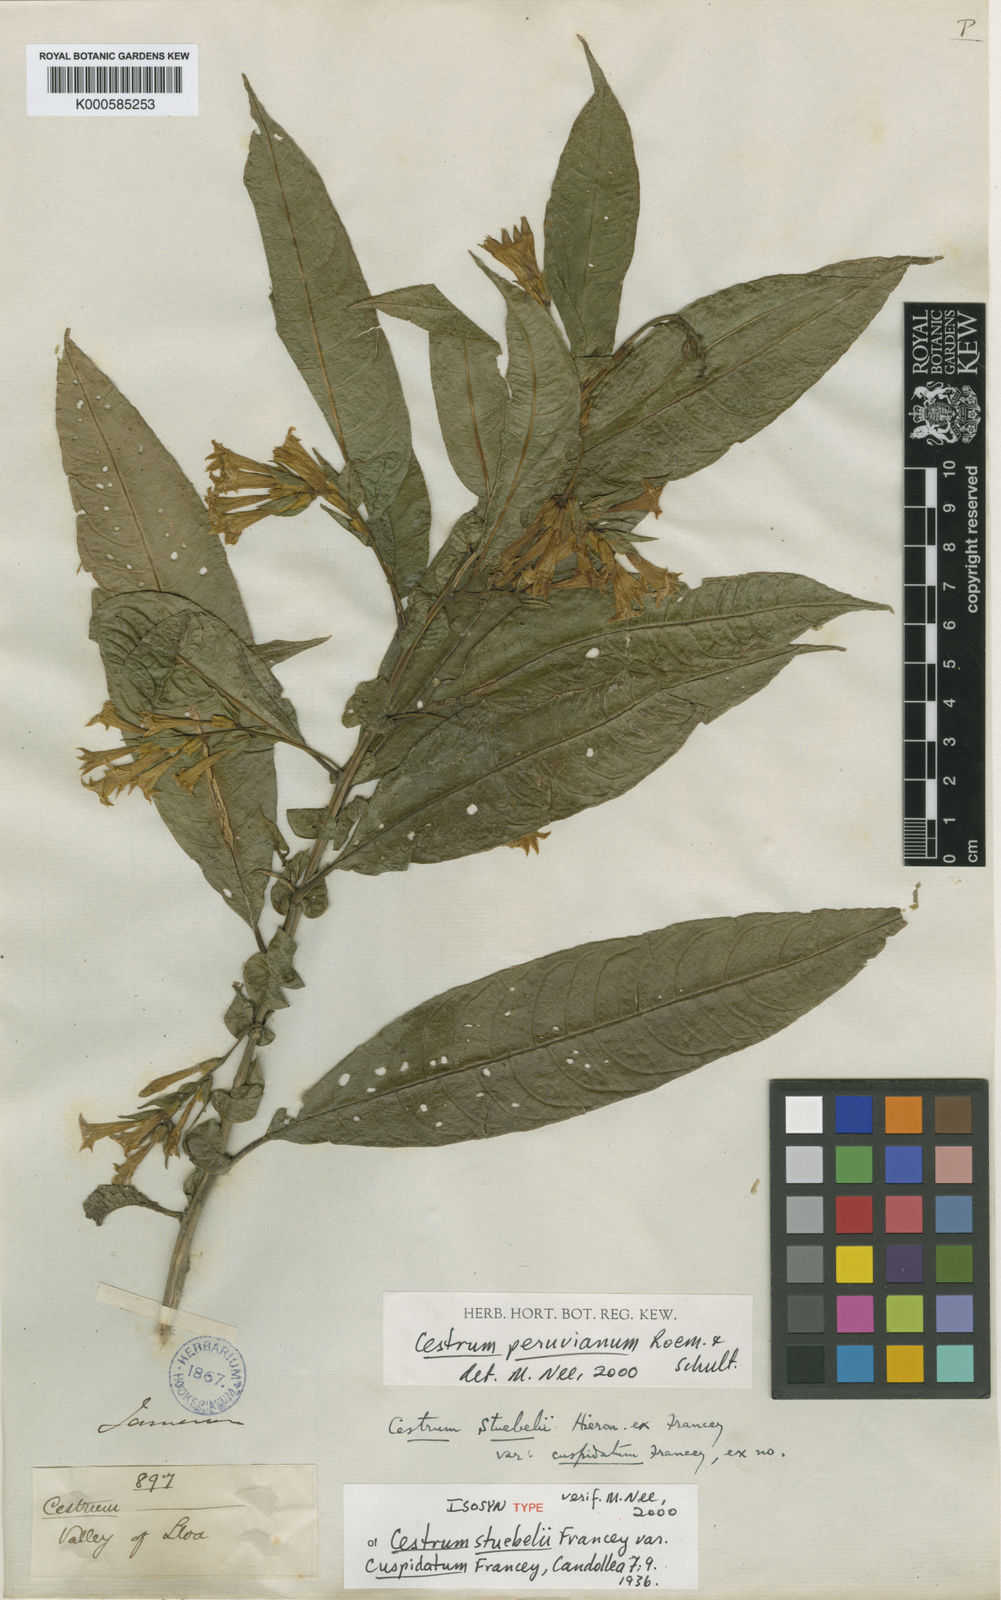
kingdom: Plantae
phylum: Tracheophyta
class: Magnoliopsida
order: Solanales
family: Solanaceae
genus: Cestrum
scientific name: Cestrum stuebelii
